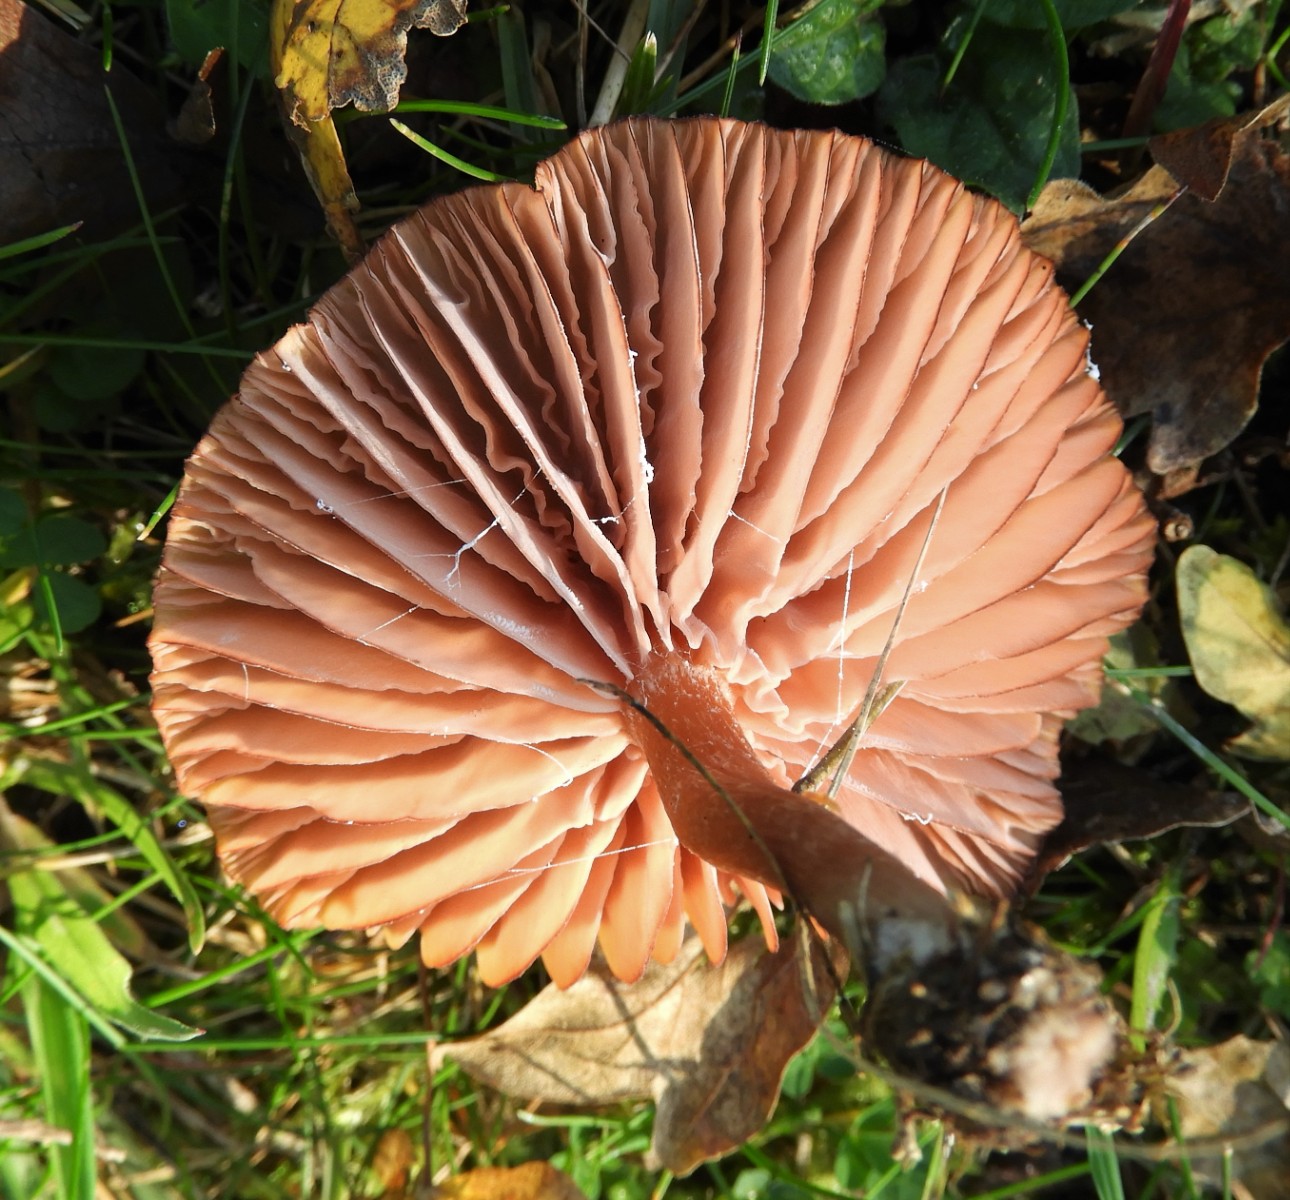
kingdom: Fungi
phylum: Basidiomycota
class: Agaricomycetes
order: Agaricales
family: Hydnangiaceae
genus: Laccaria
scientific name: Laccaria proxima
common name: stor ametysthat
